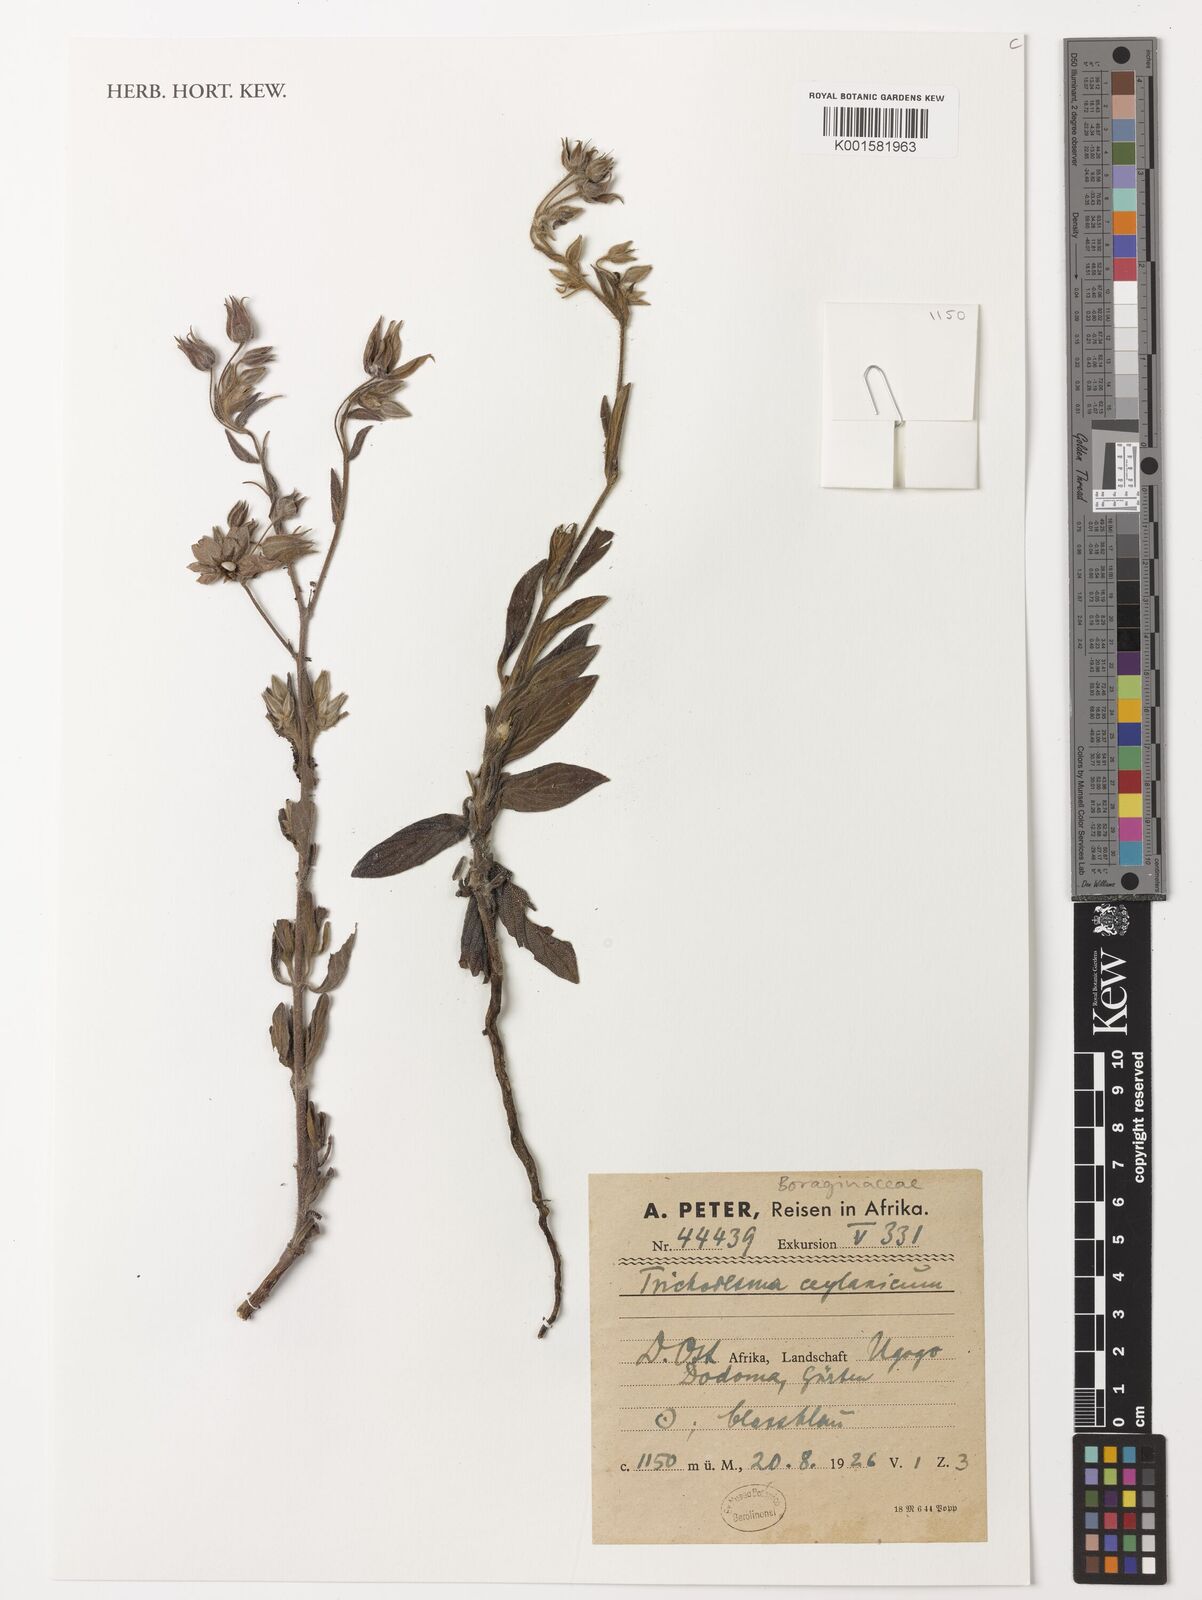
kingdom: Plantae
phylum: Tracheophyta
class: Magnoliopsida
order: Boraginales
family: Boraginaceae
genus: Trichodesma
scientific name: Trichodesma zeylanicum
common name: Camelbush
